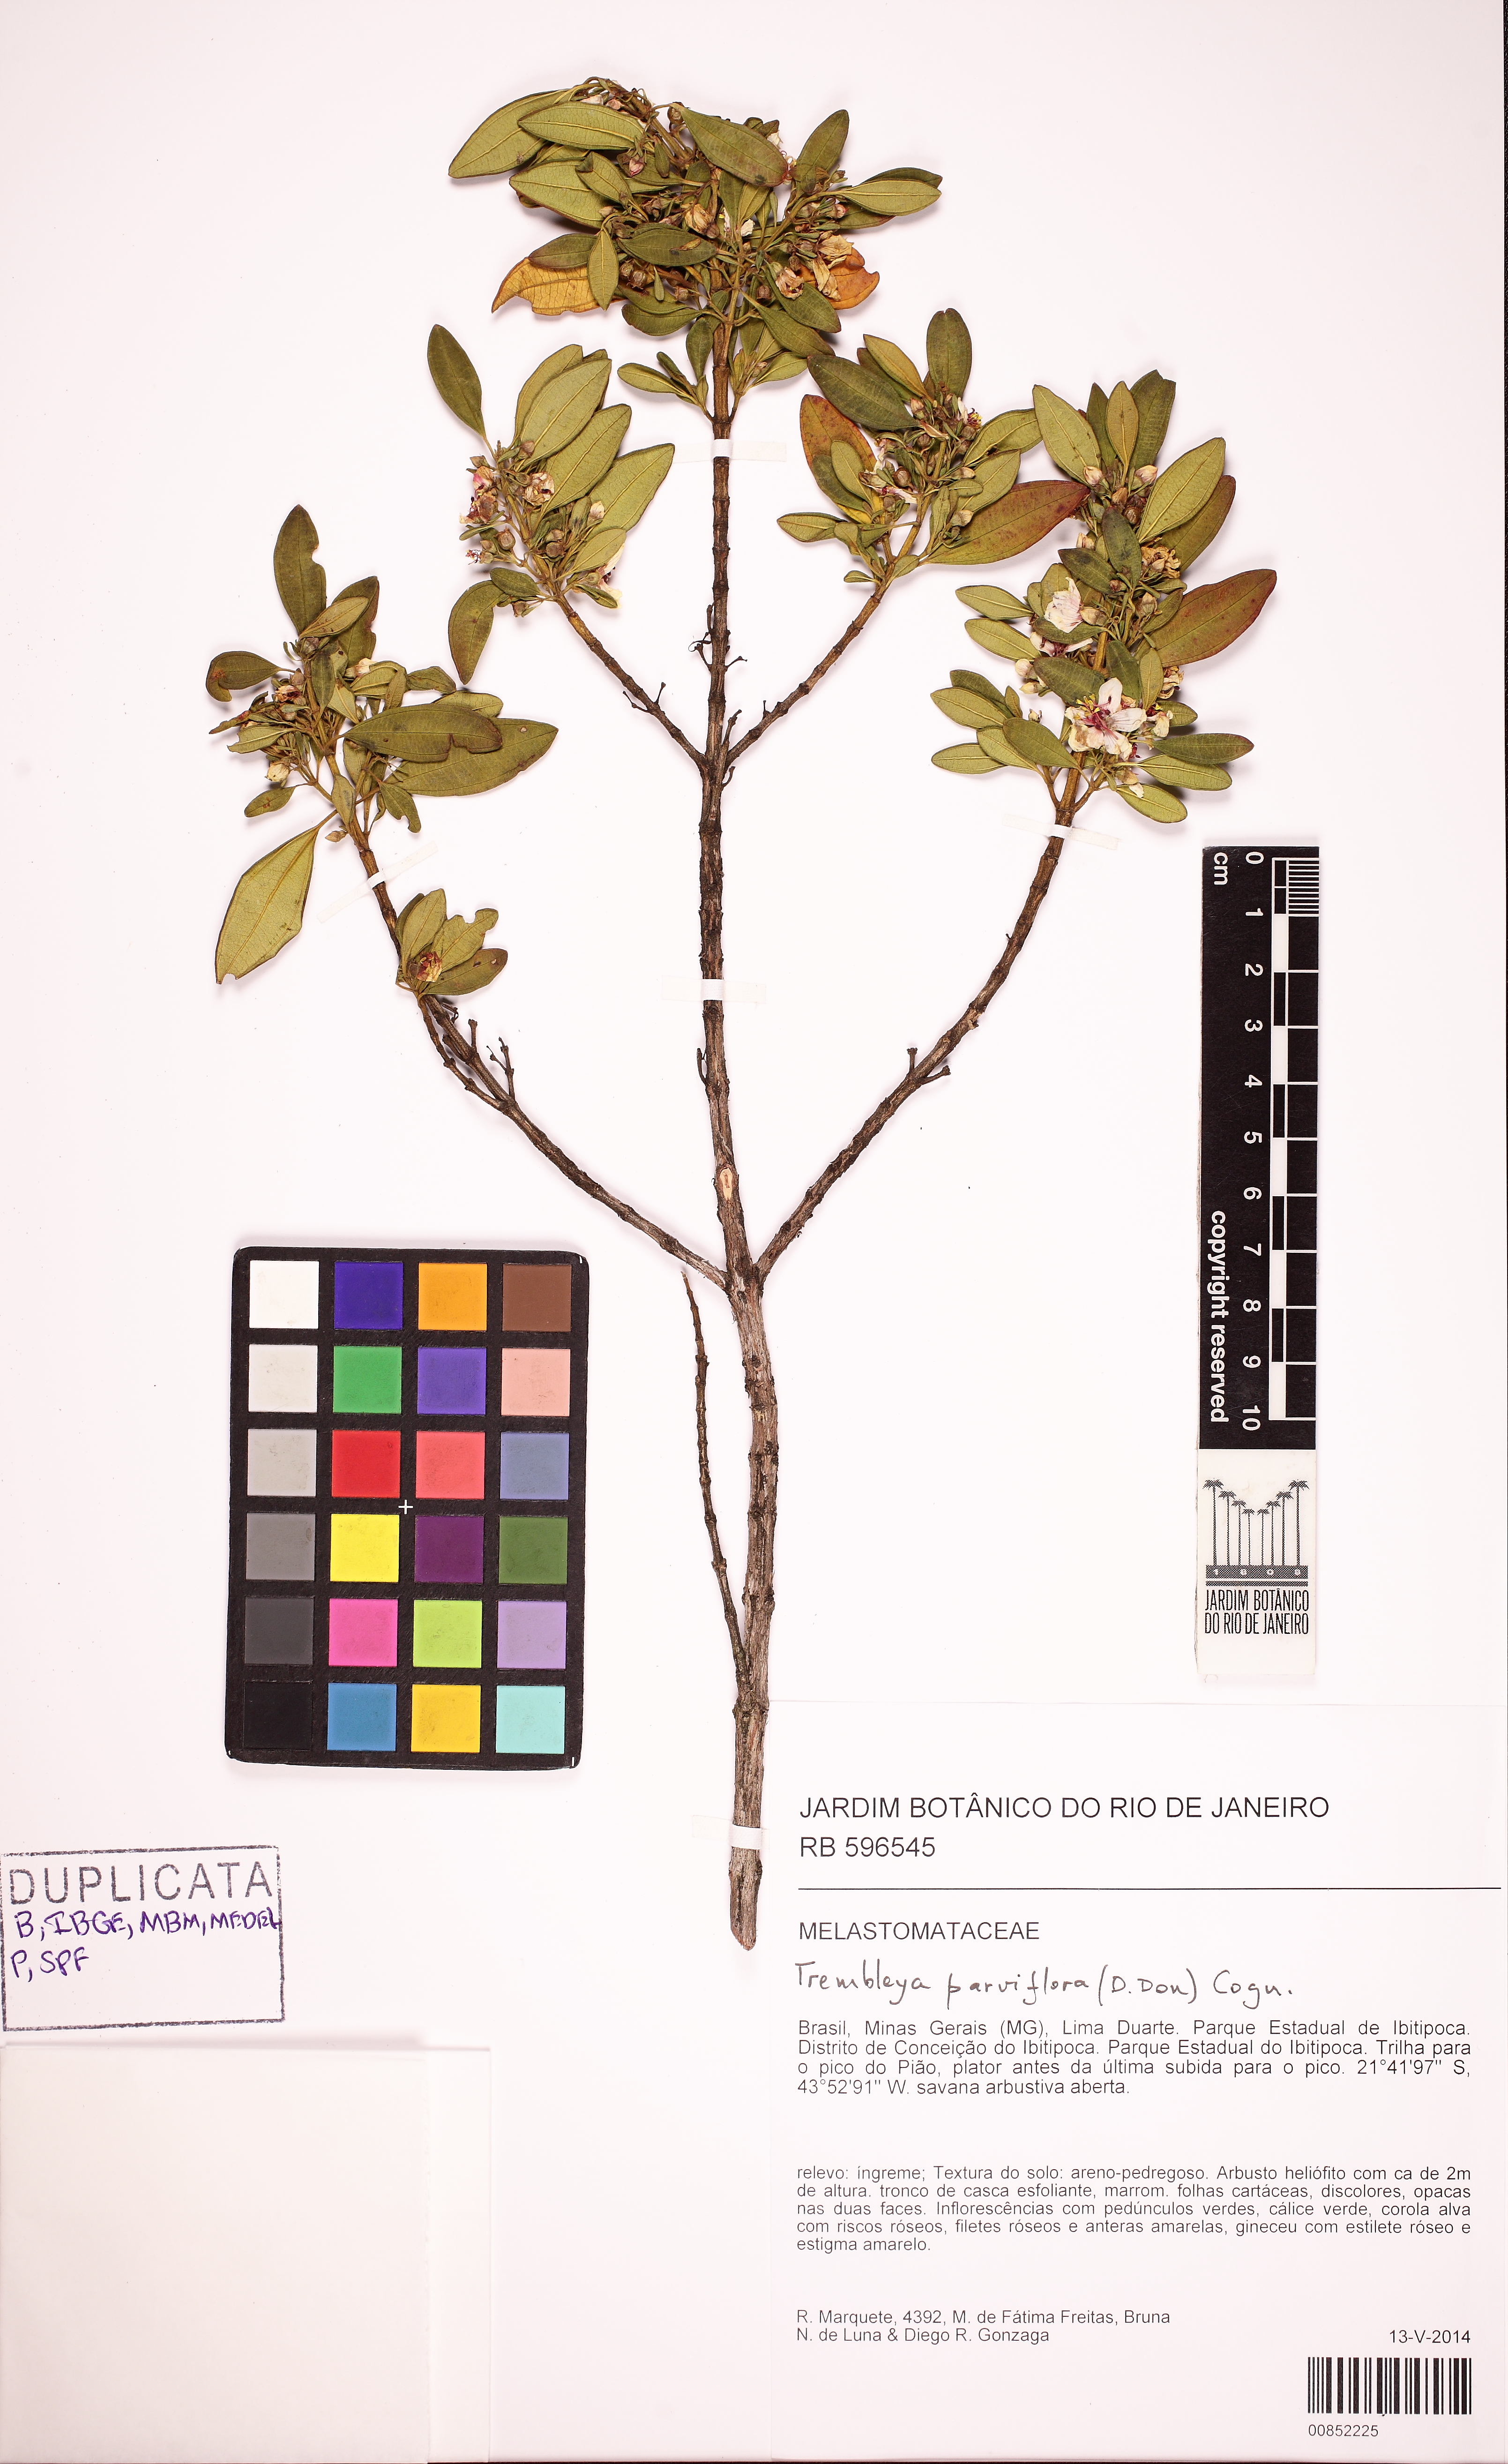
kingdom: Plantae
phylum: Tracheophyta
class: Magnoliopsida
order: Myrtales
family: Melastomataceae
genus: Microlicia
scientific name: Microlicia parviflora
